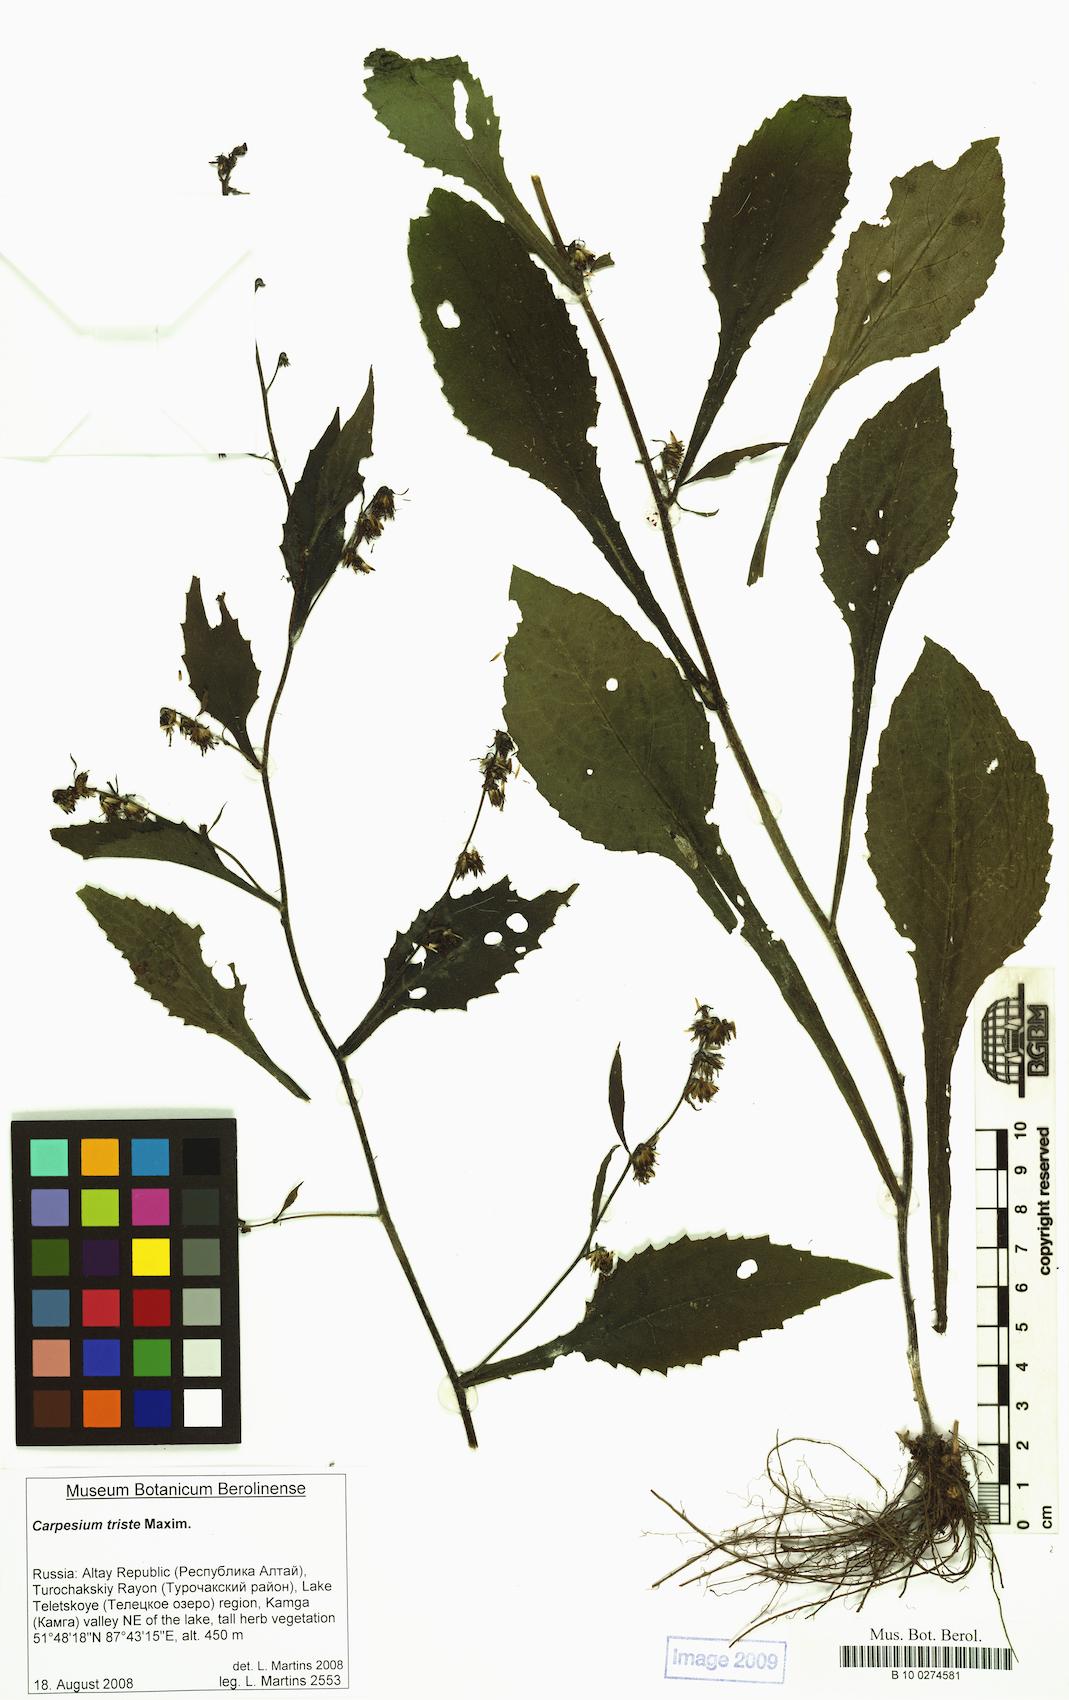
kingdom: Plantae
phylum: Tracheophyta
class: Magnoliopsida
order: Asterales
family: Asteraceae
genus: Carpesium
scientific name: Carpesium triste
